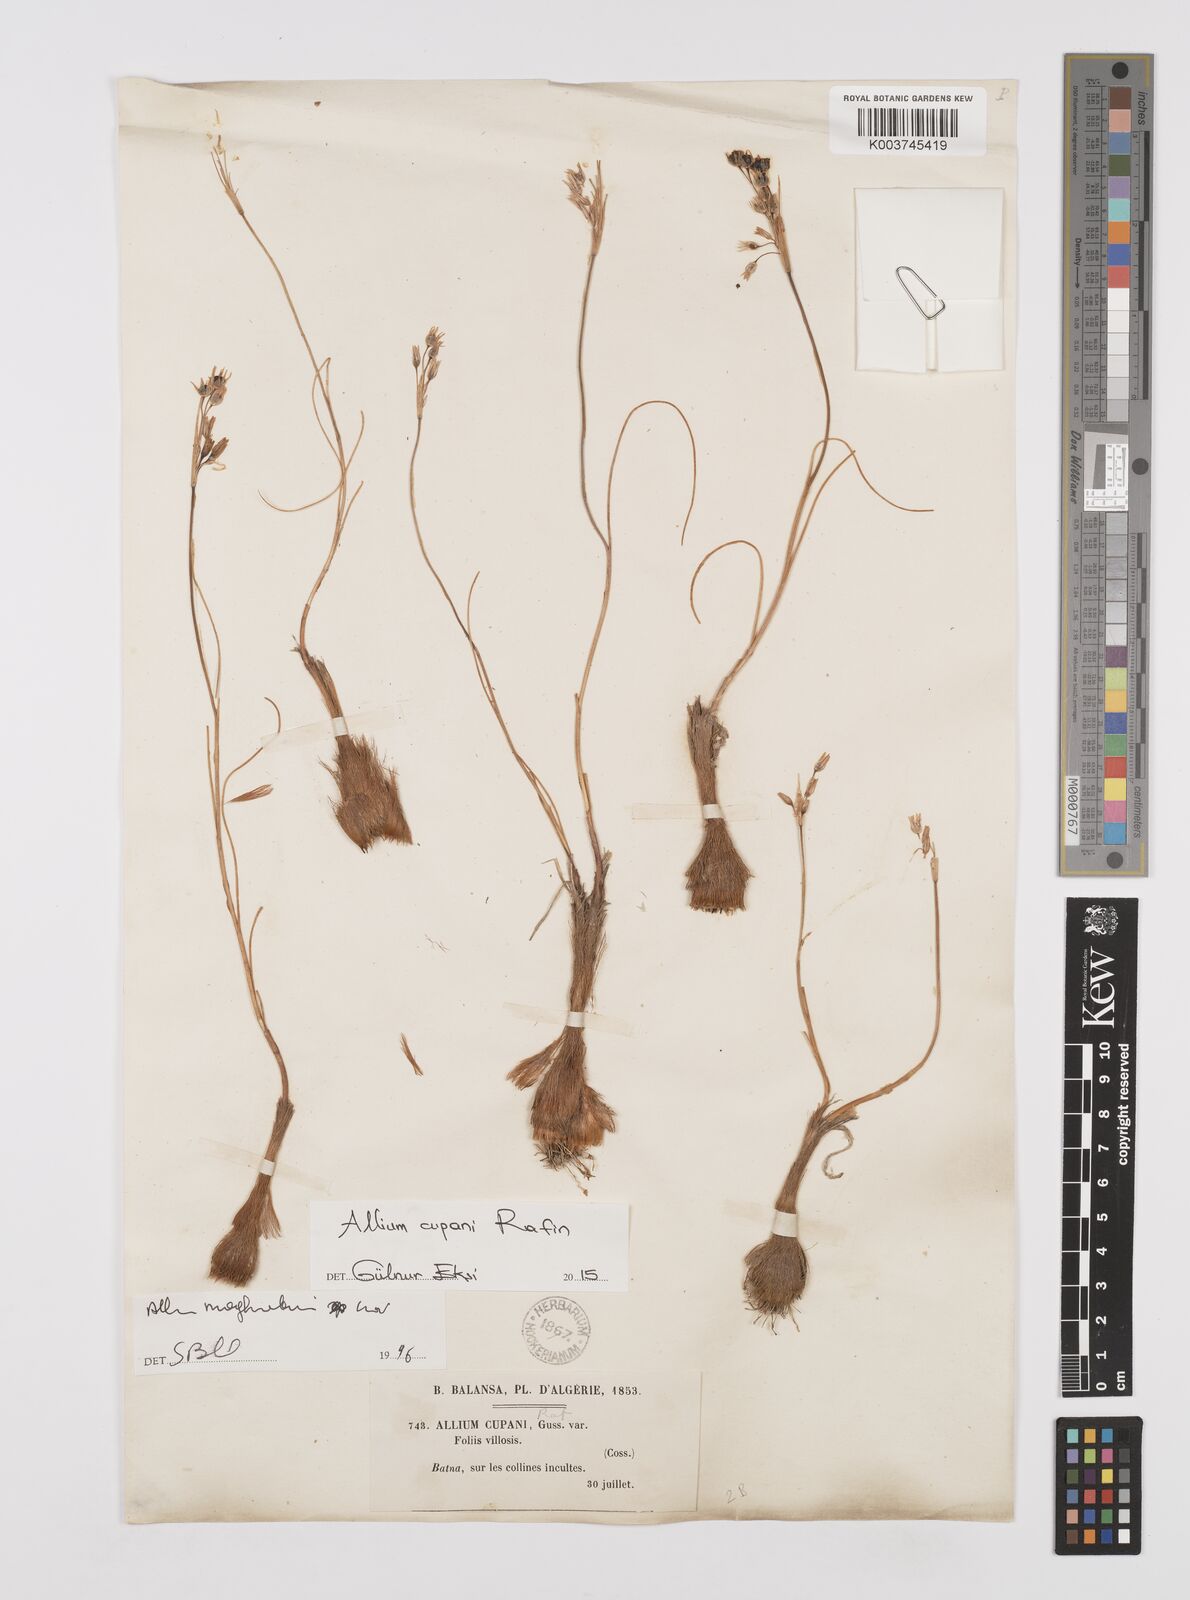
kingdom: Plantae
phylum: Tracheophyta
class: Liliopsida
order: Asparagales
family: Amaryllidaceae
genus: Allium
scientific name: Allium cupani
